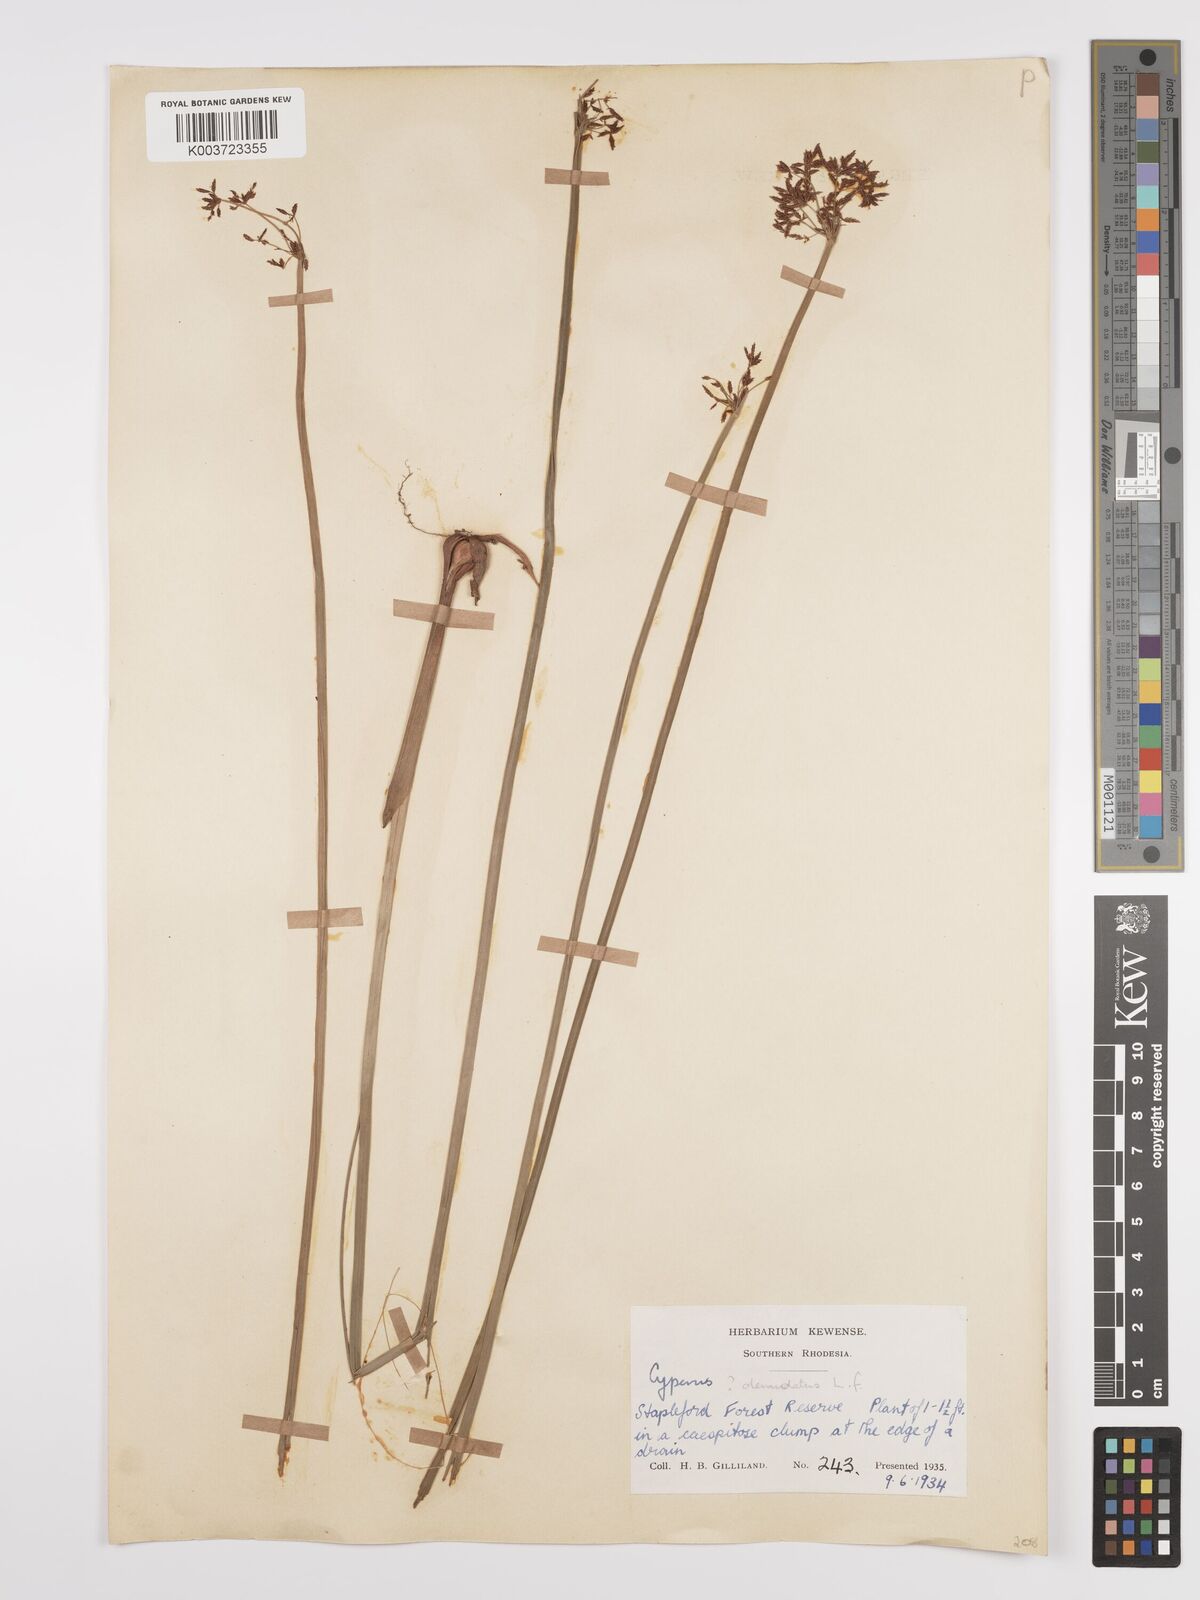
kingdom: Plantae
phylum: Tracheophyta
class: Liliopsida
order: Poales
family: Cyperaceae
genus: Cyperus
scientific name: Cyperus denudatus
